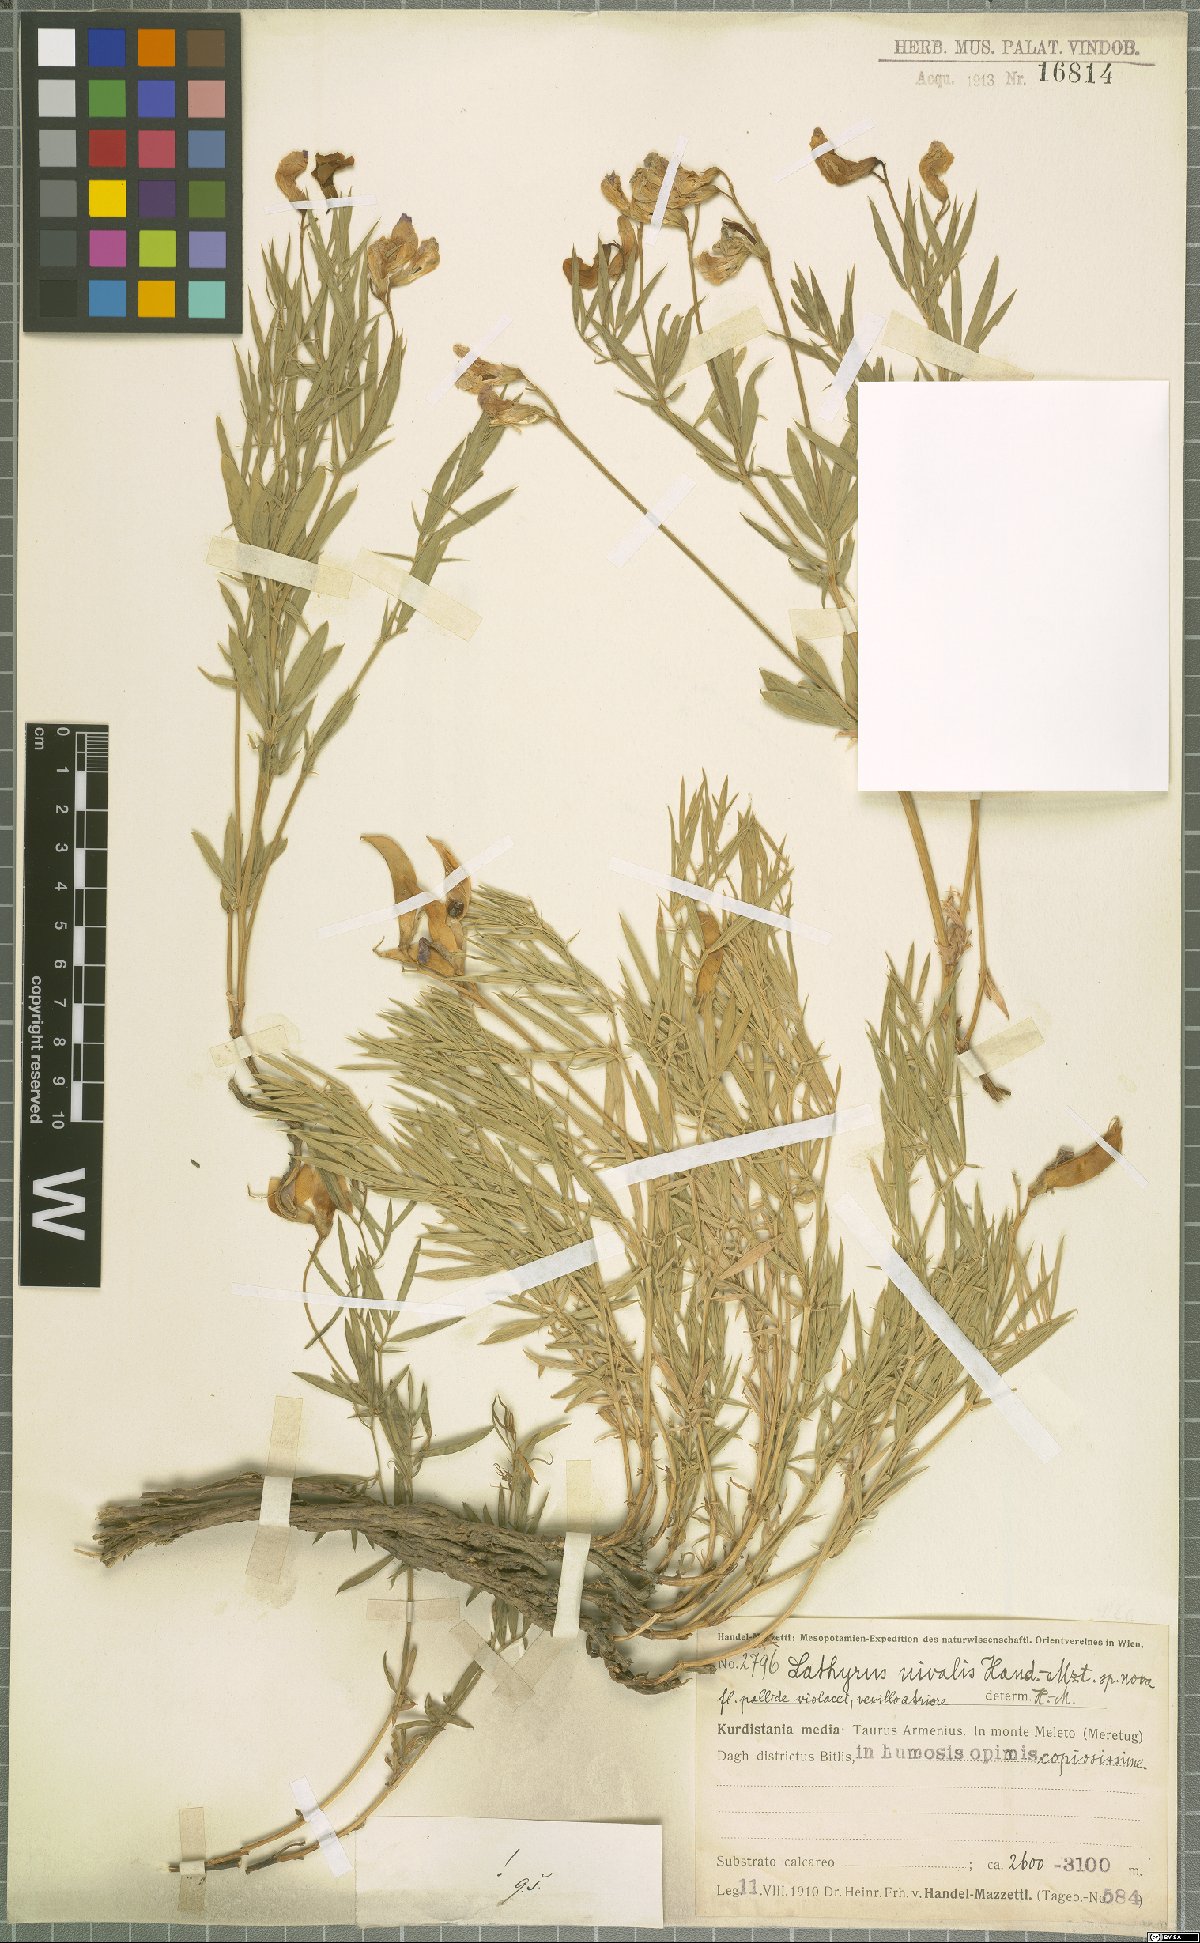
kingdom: Plantae
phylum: Tracheophyta
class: Magnoliopsida
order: Fabales
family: Fabaceae
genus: Lathyrus
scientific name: Lathyrus nivalis
